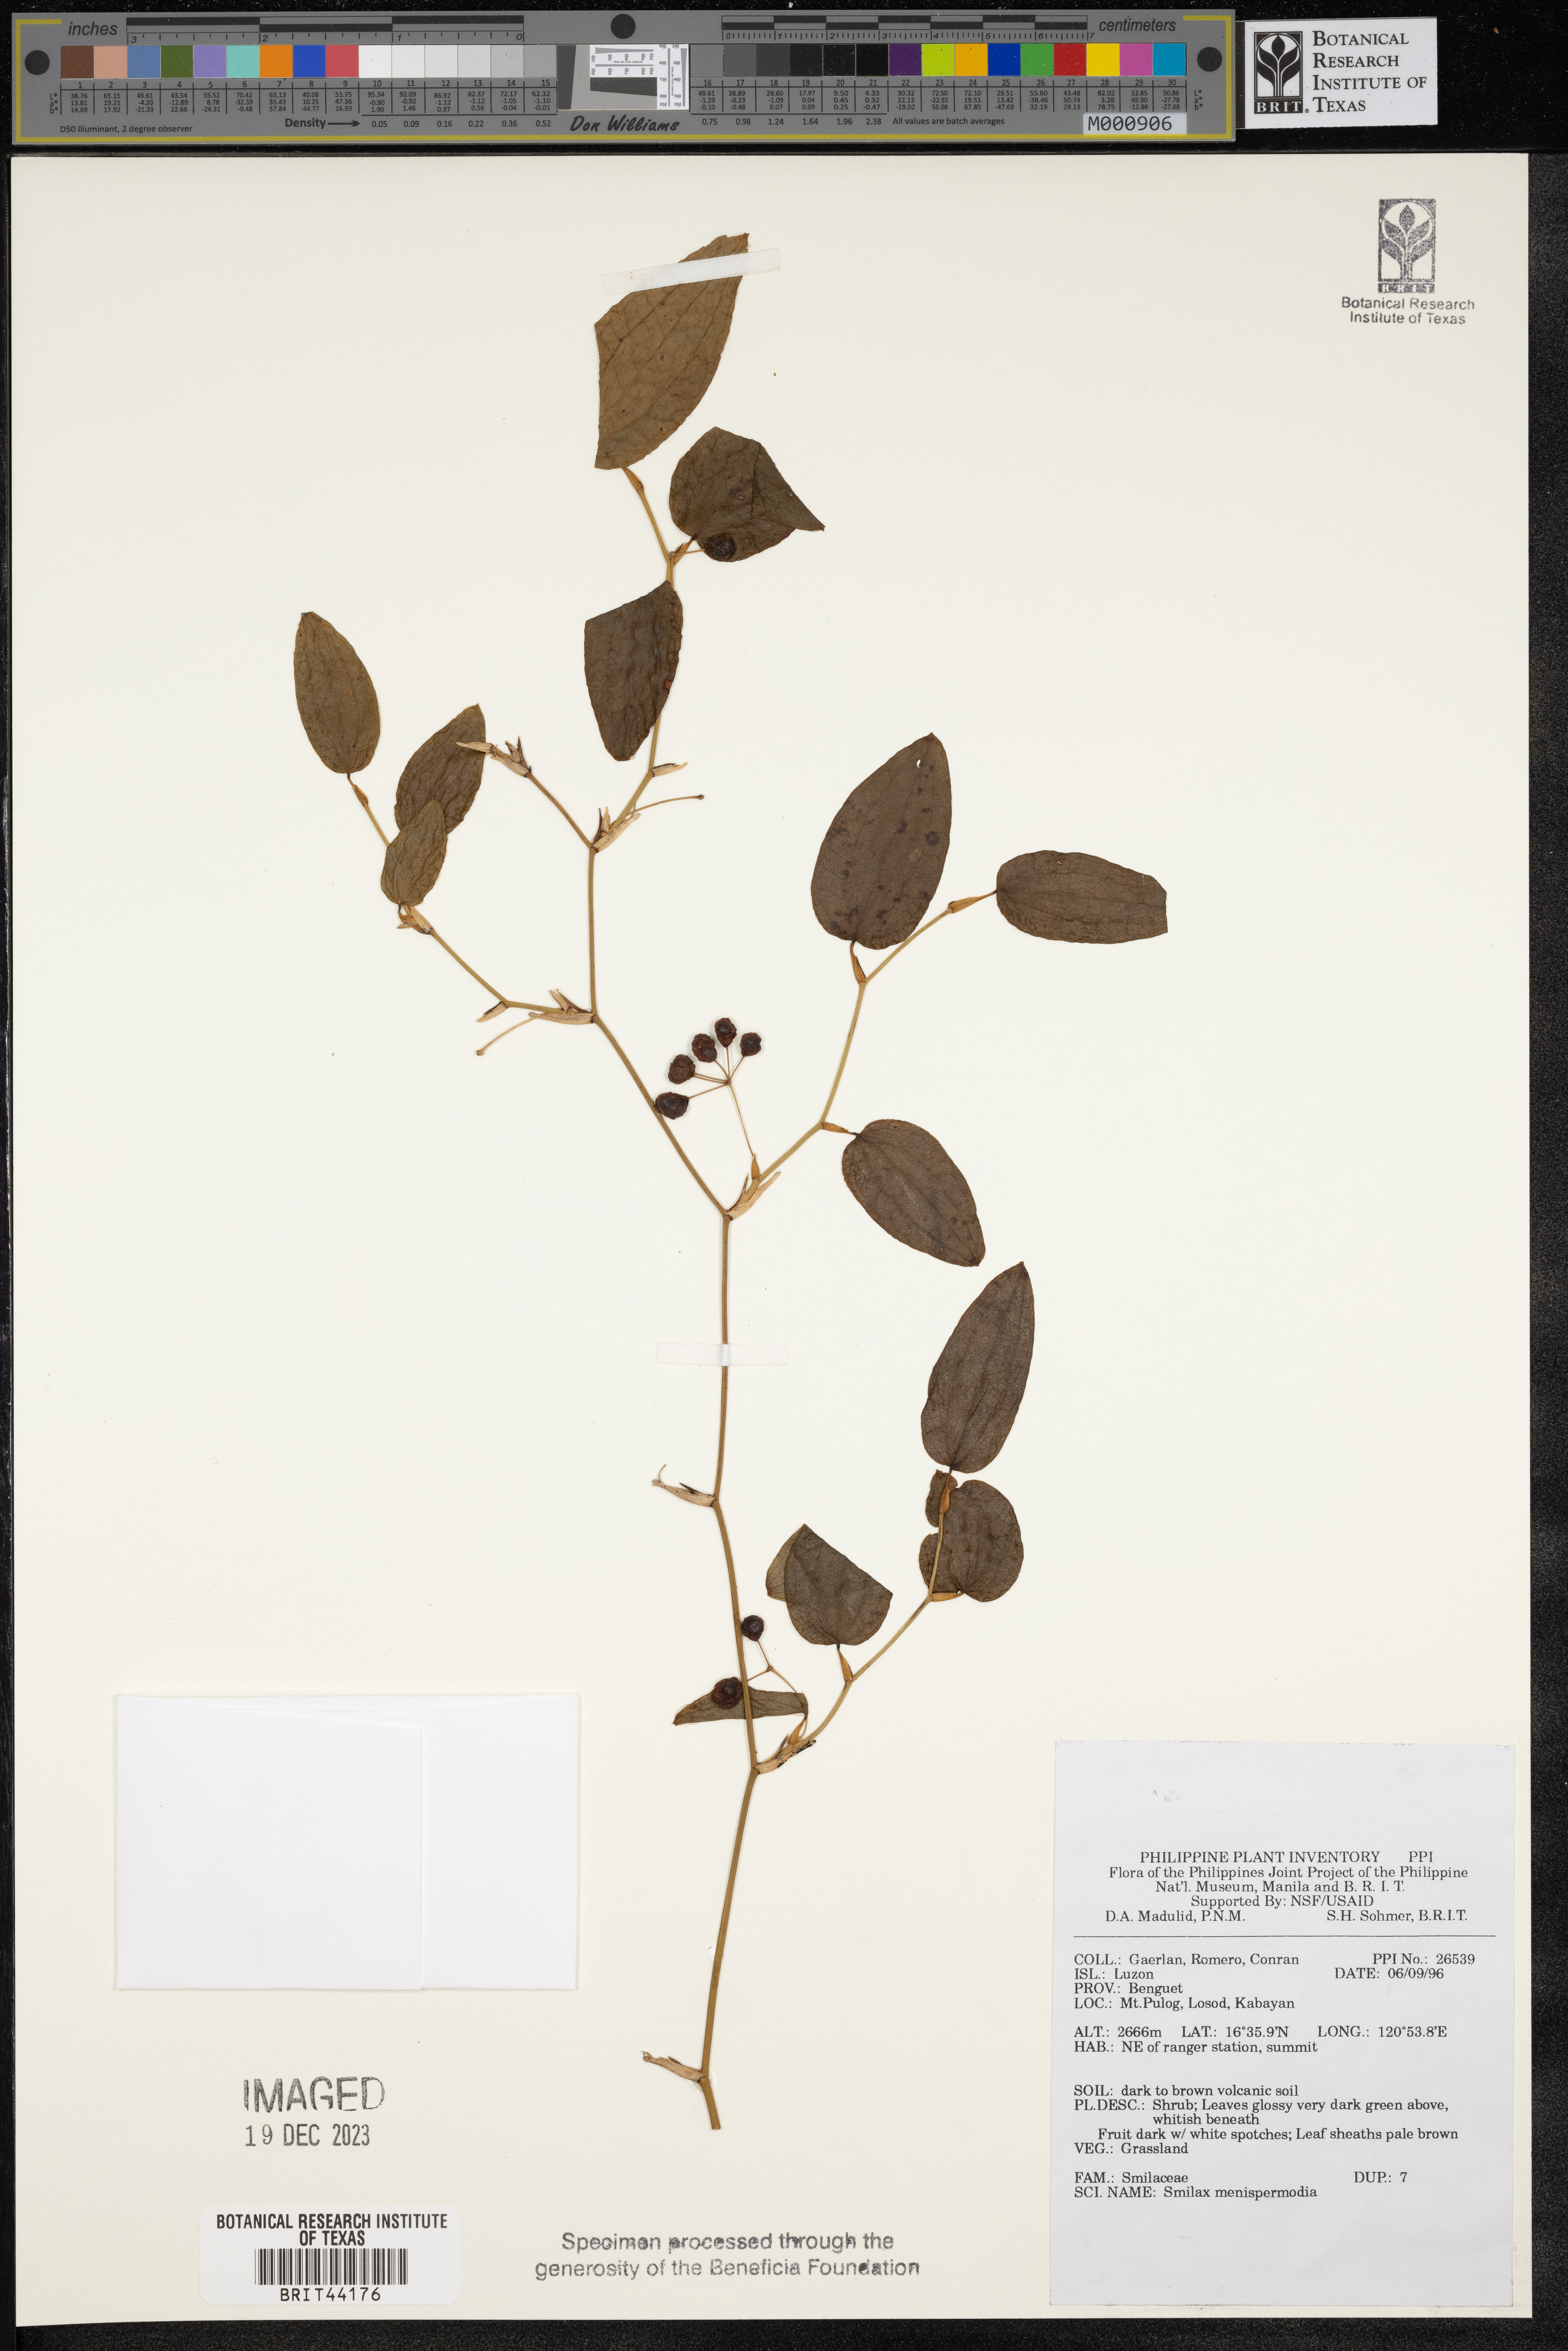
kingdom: Plantae
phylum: Tracheophyta
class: Liliopsida
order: Liliales
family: Smilacaceae
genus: Smilax
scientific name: Smilax menispermoides
